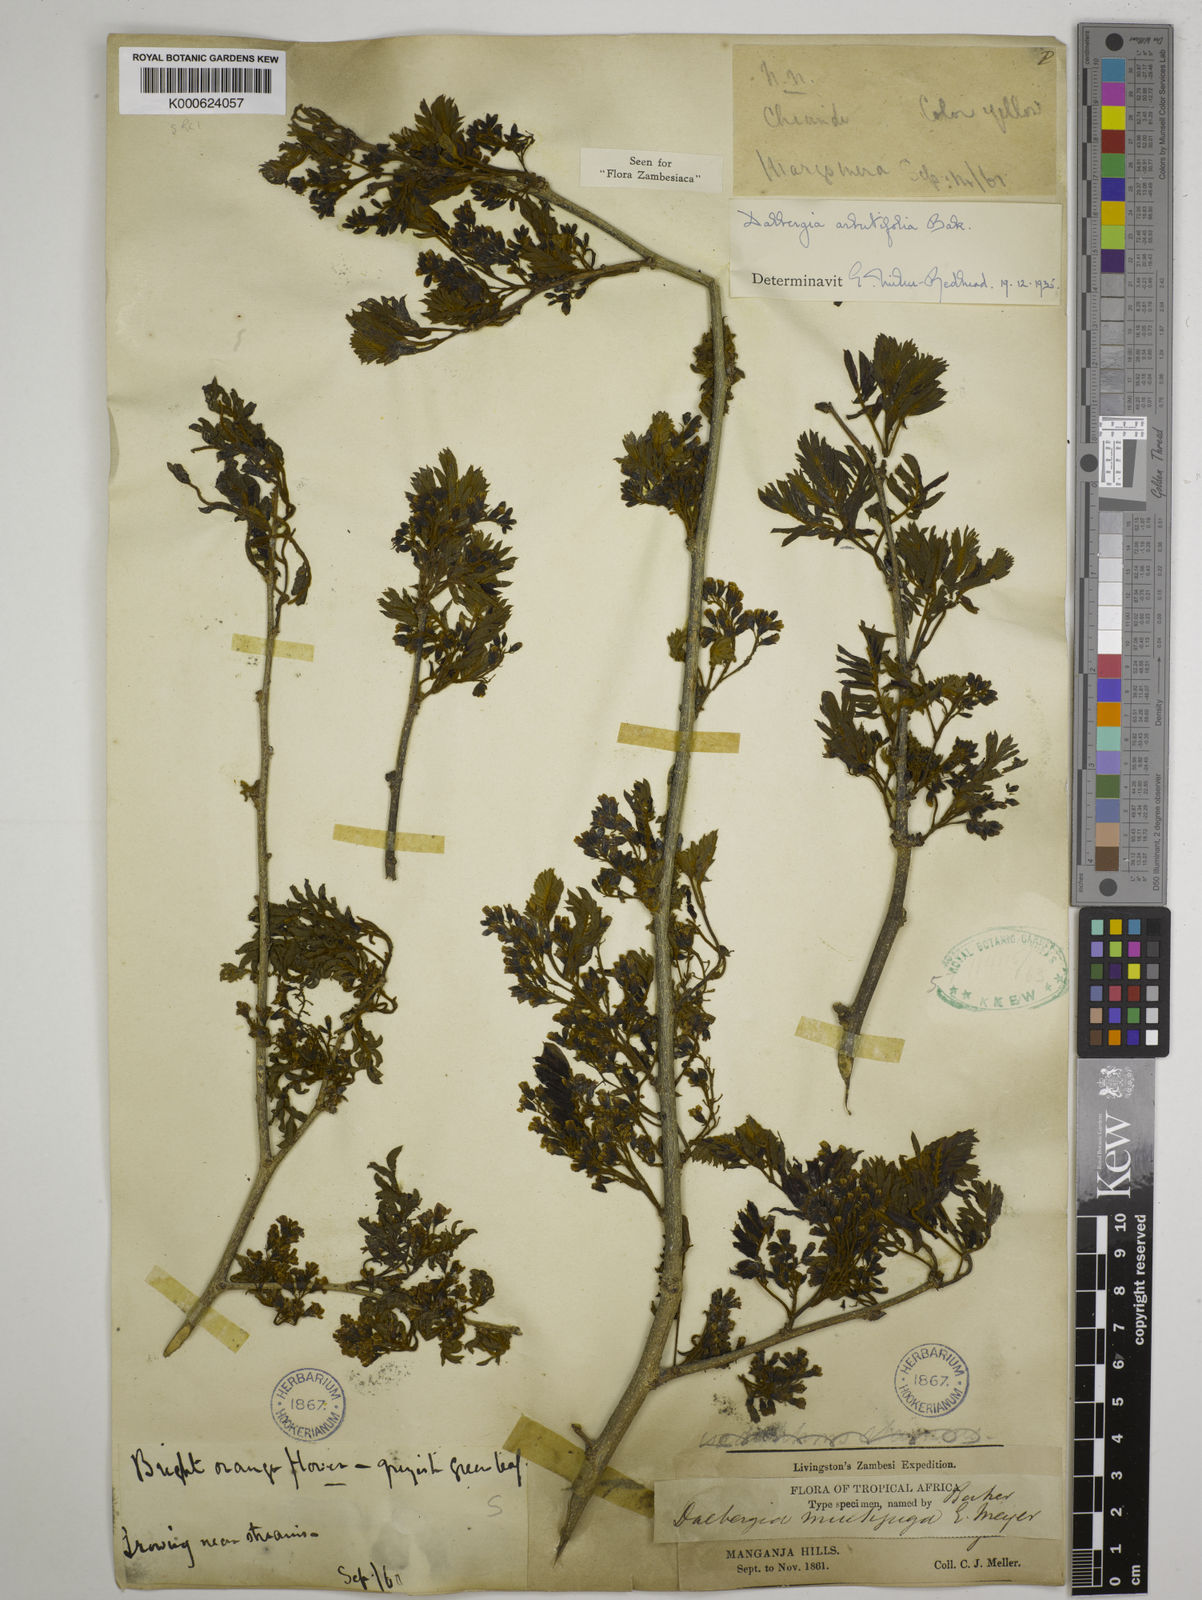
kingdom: Plantae
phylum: Tracheophyta
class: Magnoliopsida
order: Fabales
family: Fabaceae
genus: Dalbergia
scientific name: Dalbergia arbutifolia
